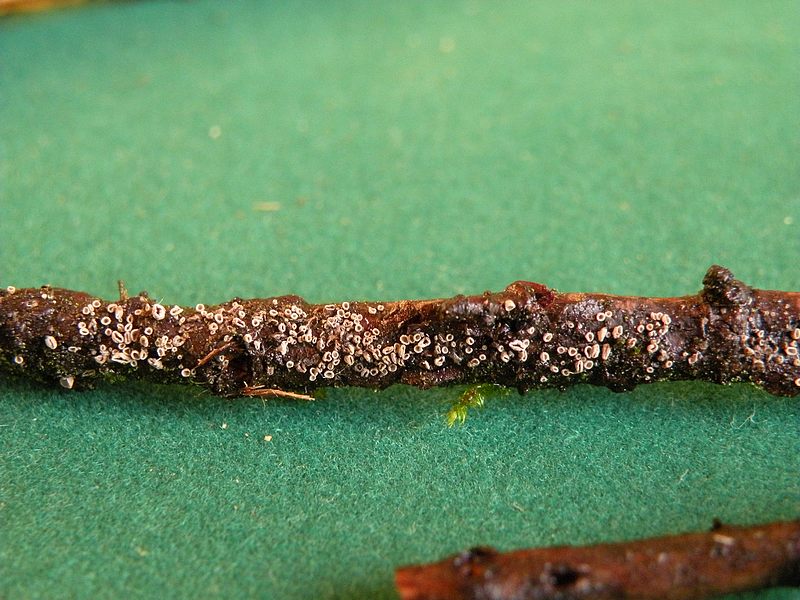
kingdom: Fungi
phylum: Basidiomycota
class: Agaricomycetes
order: Agaricales
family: Pleurotaceae
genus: Resupinatus
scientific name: Resupinatus griseopallidus
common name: ene-barkhat
